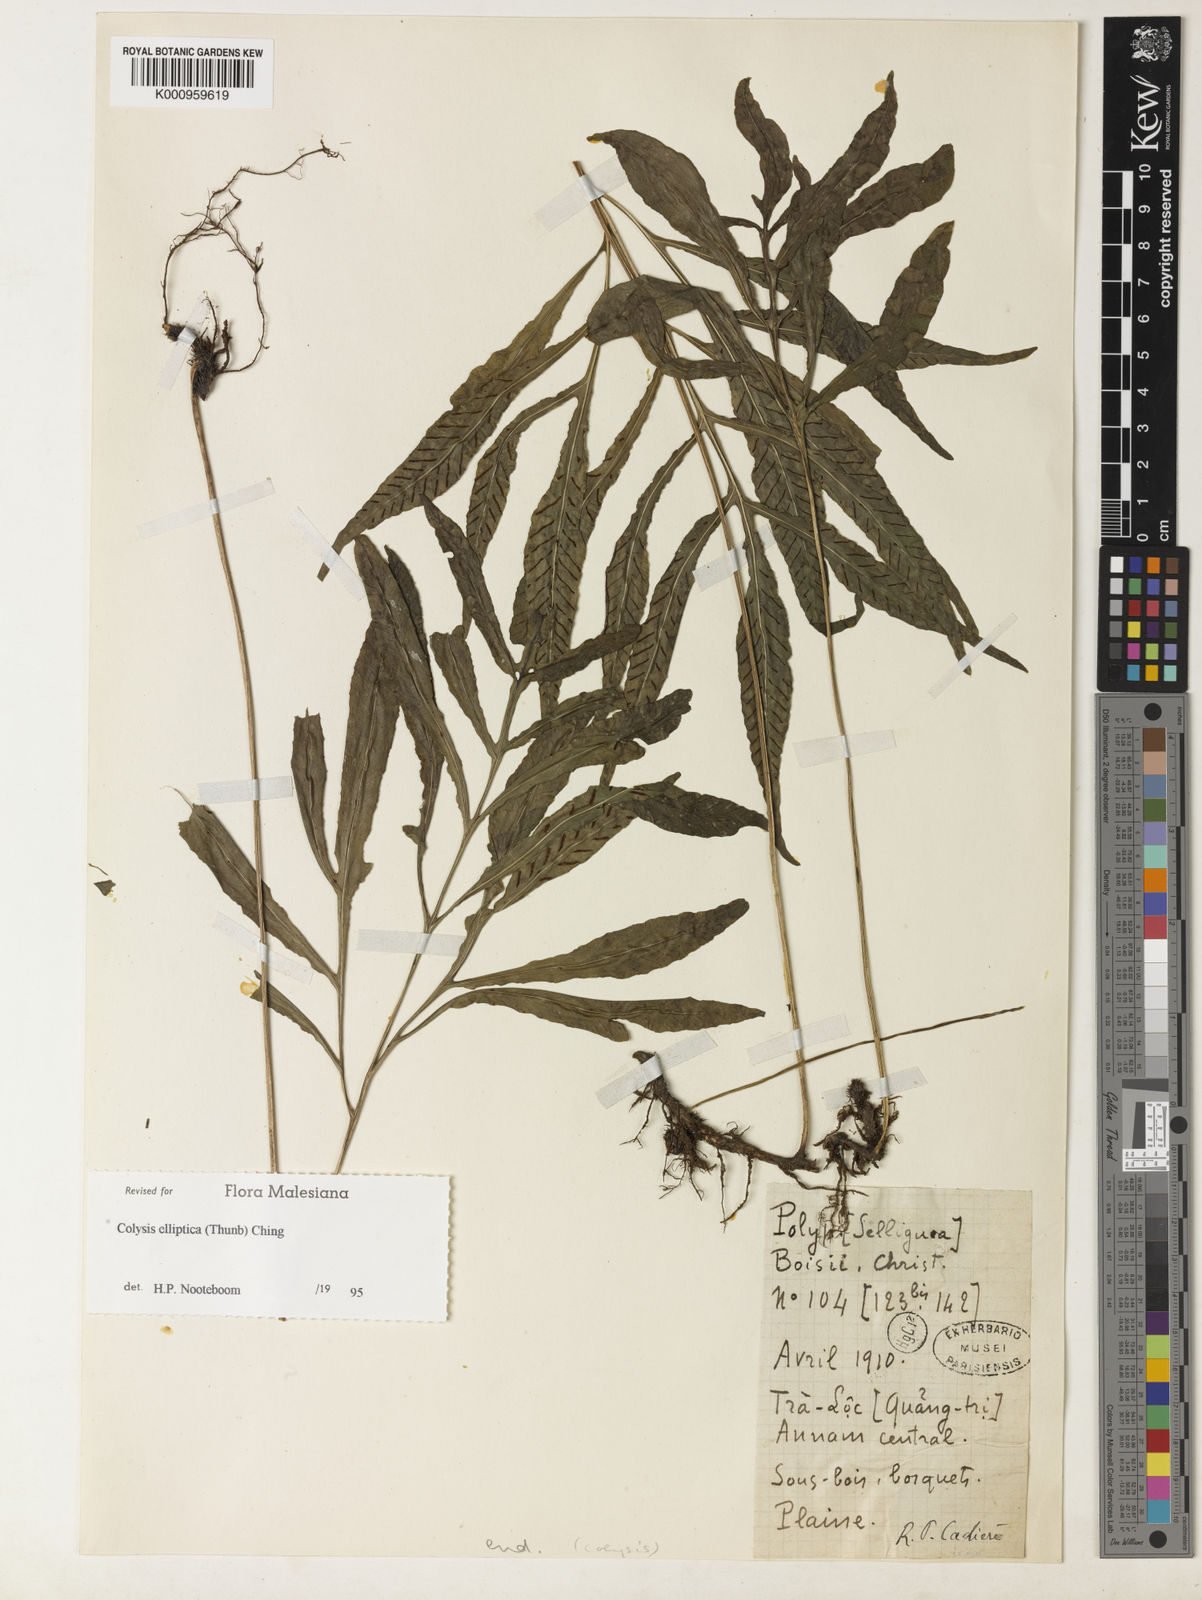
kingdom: Plantae
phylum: Tracheophyta
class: Polypodiopsida
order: Polypodiales
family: Polypodiaceae
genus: Leptochilus
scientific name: Leptochilus ellipticus
